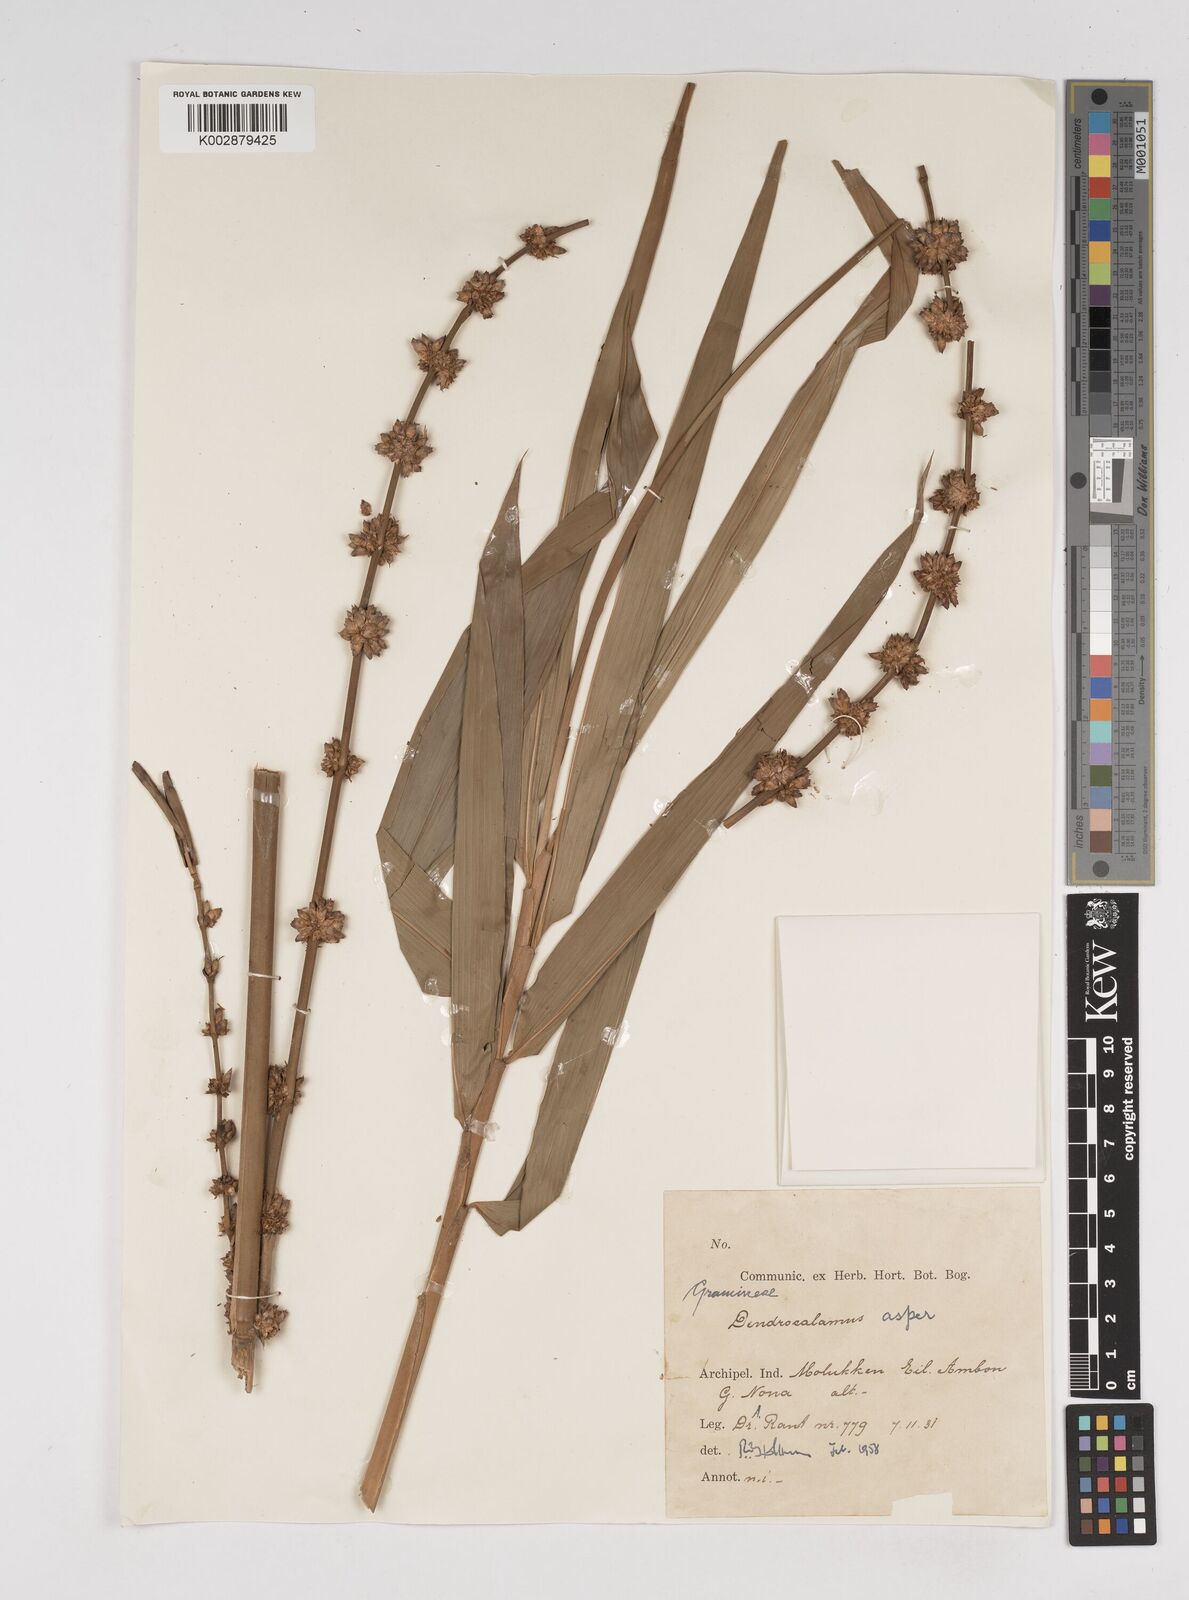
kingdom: Plantae
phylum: Tracheophyta
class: Liliopsida
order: Poales
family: Poaceae
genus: Dendrocalamus
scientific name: Dendrocalamus asper
